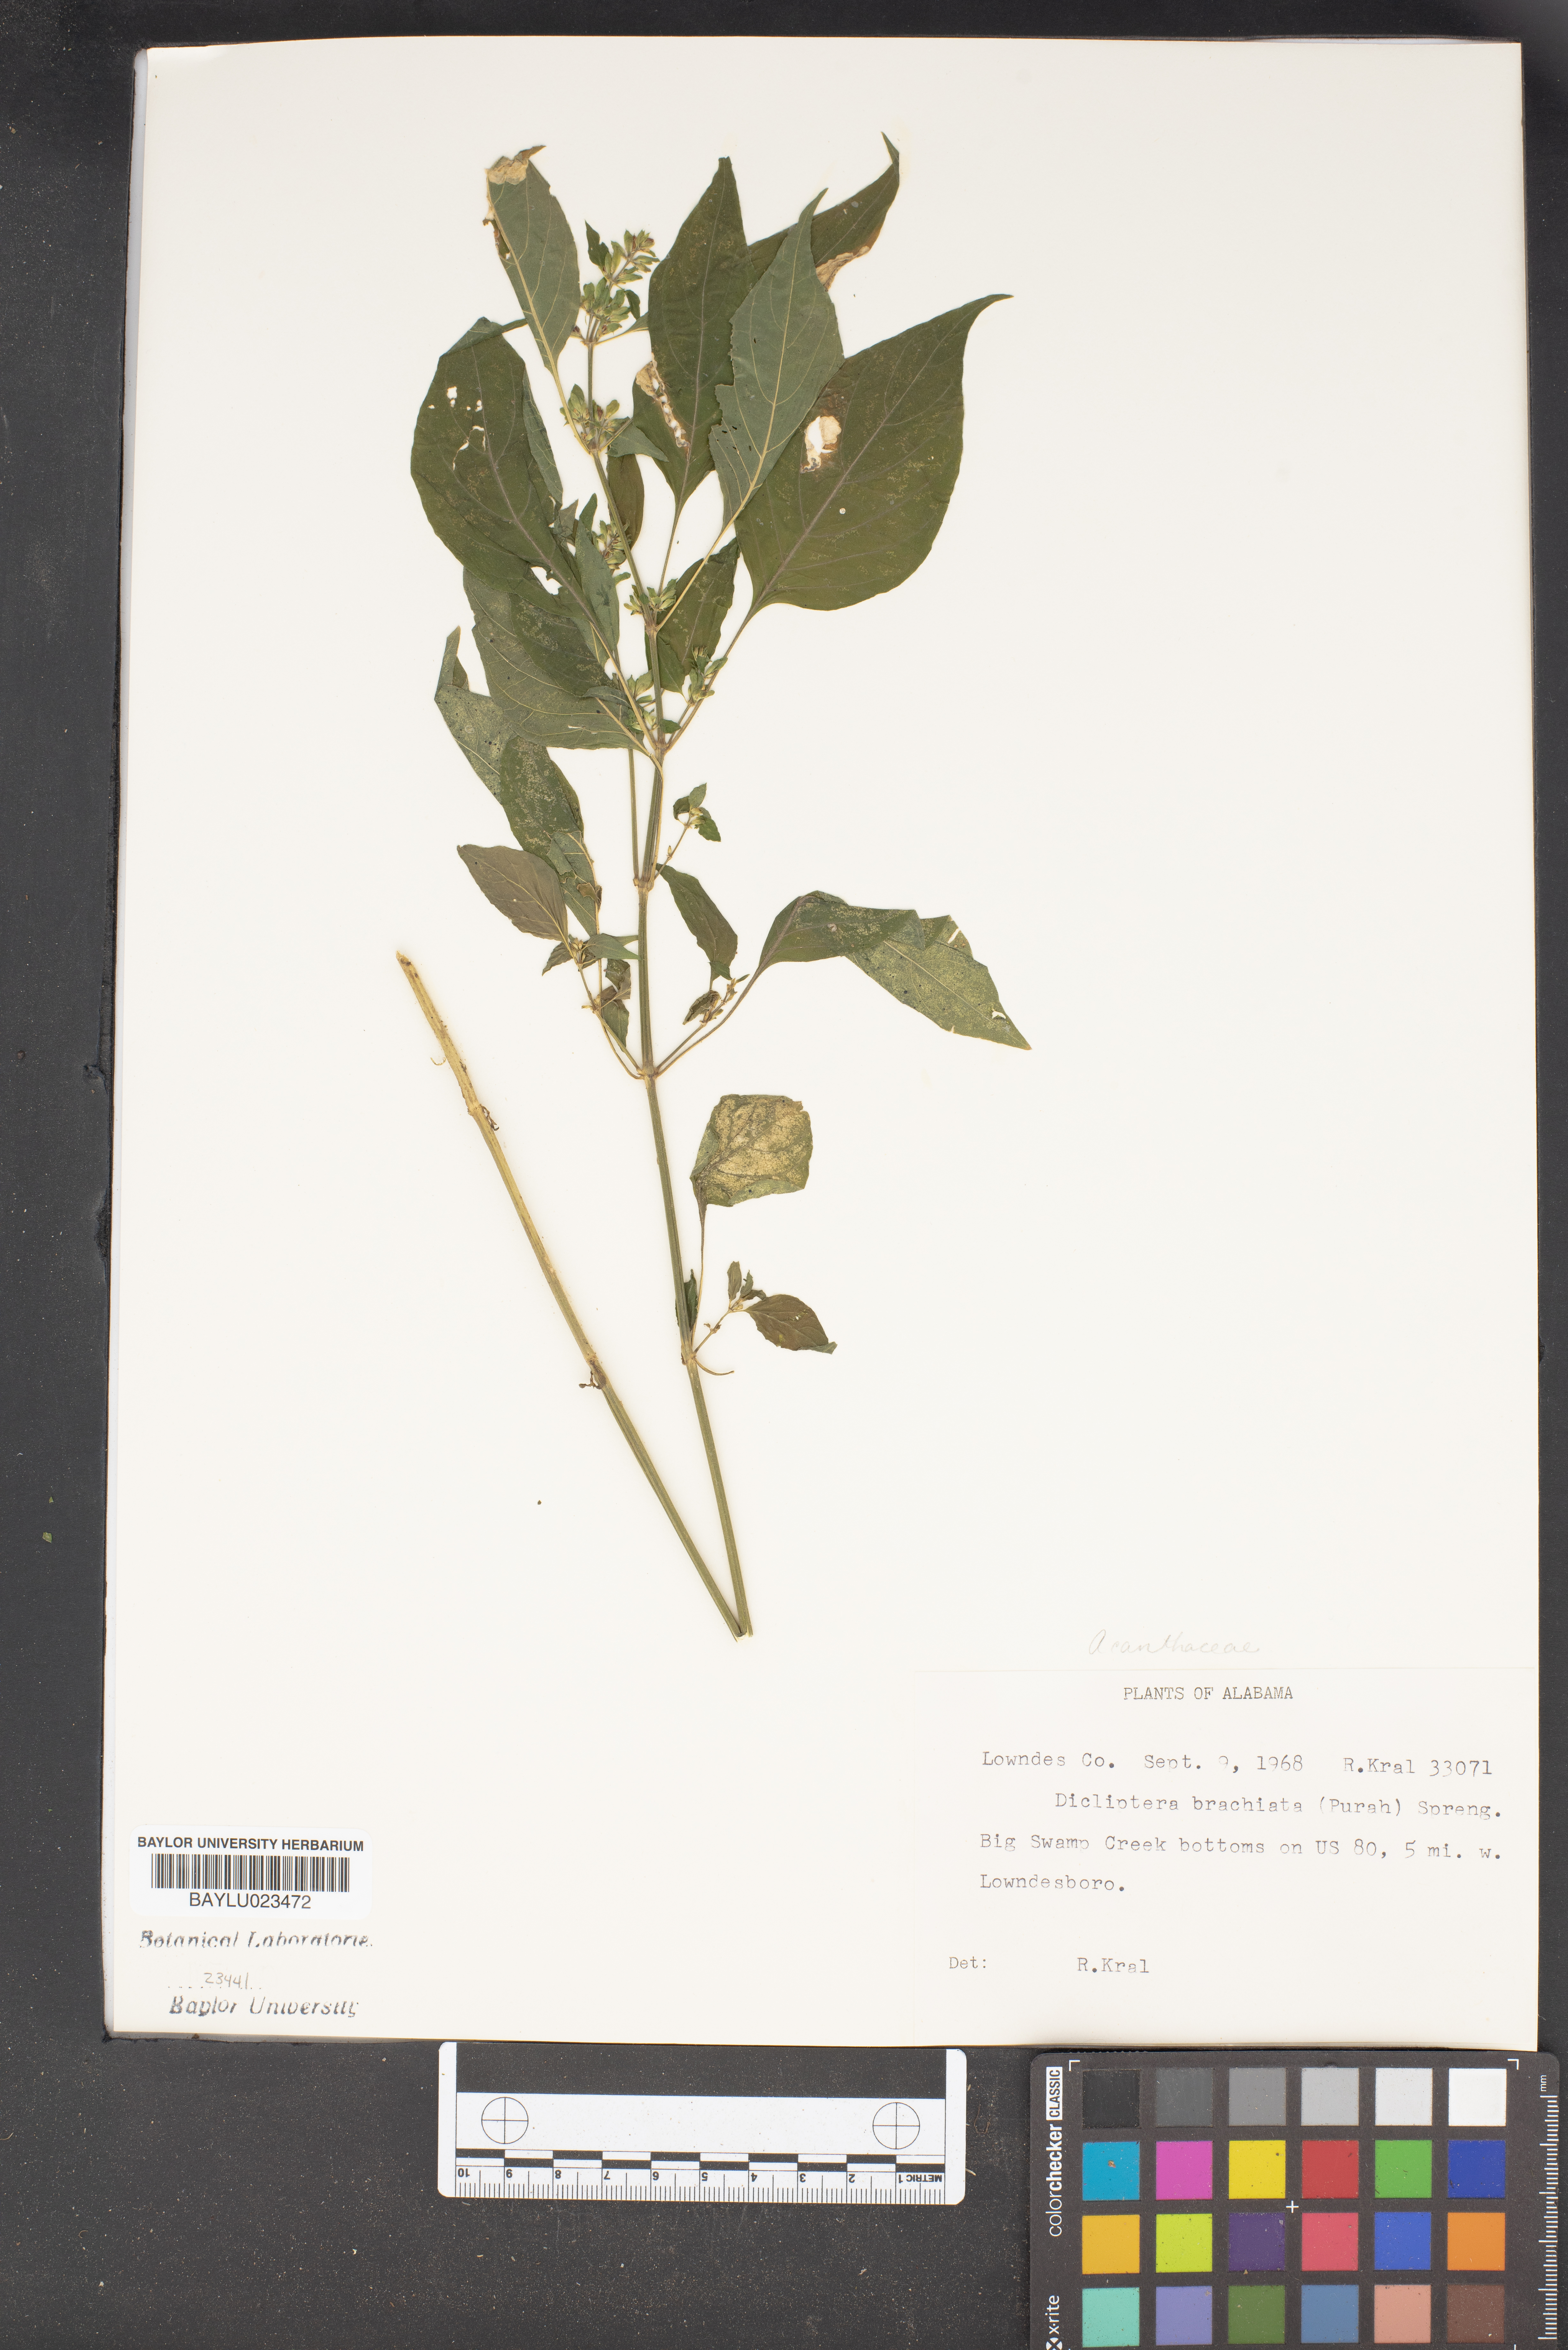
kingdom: Plantae
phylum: Tracheophyta
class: Magnoliopsida
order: Lamiales
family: Acanthaceae
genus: Dicliptera
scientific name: Dicliptera brachiata
